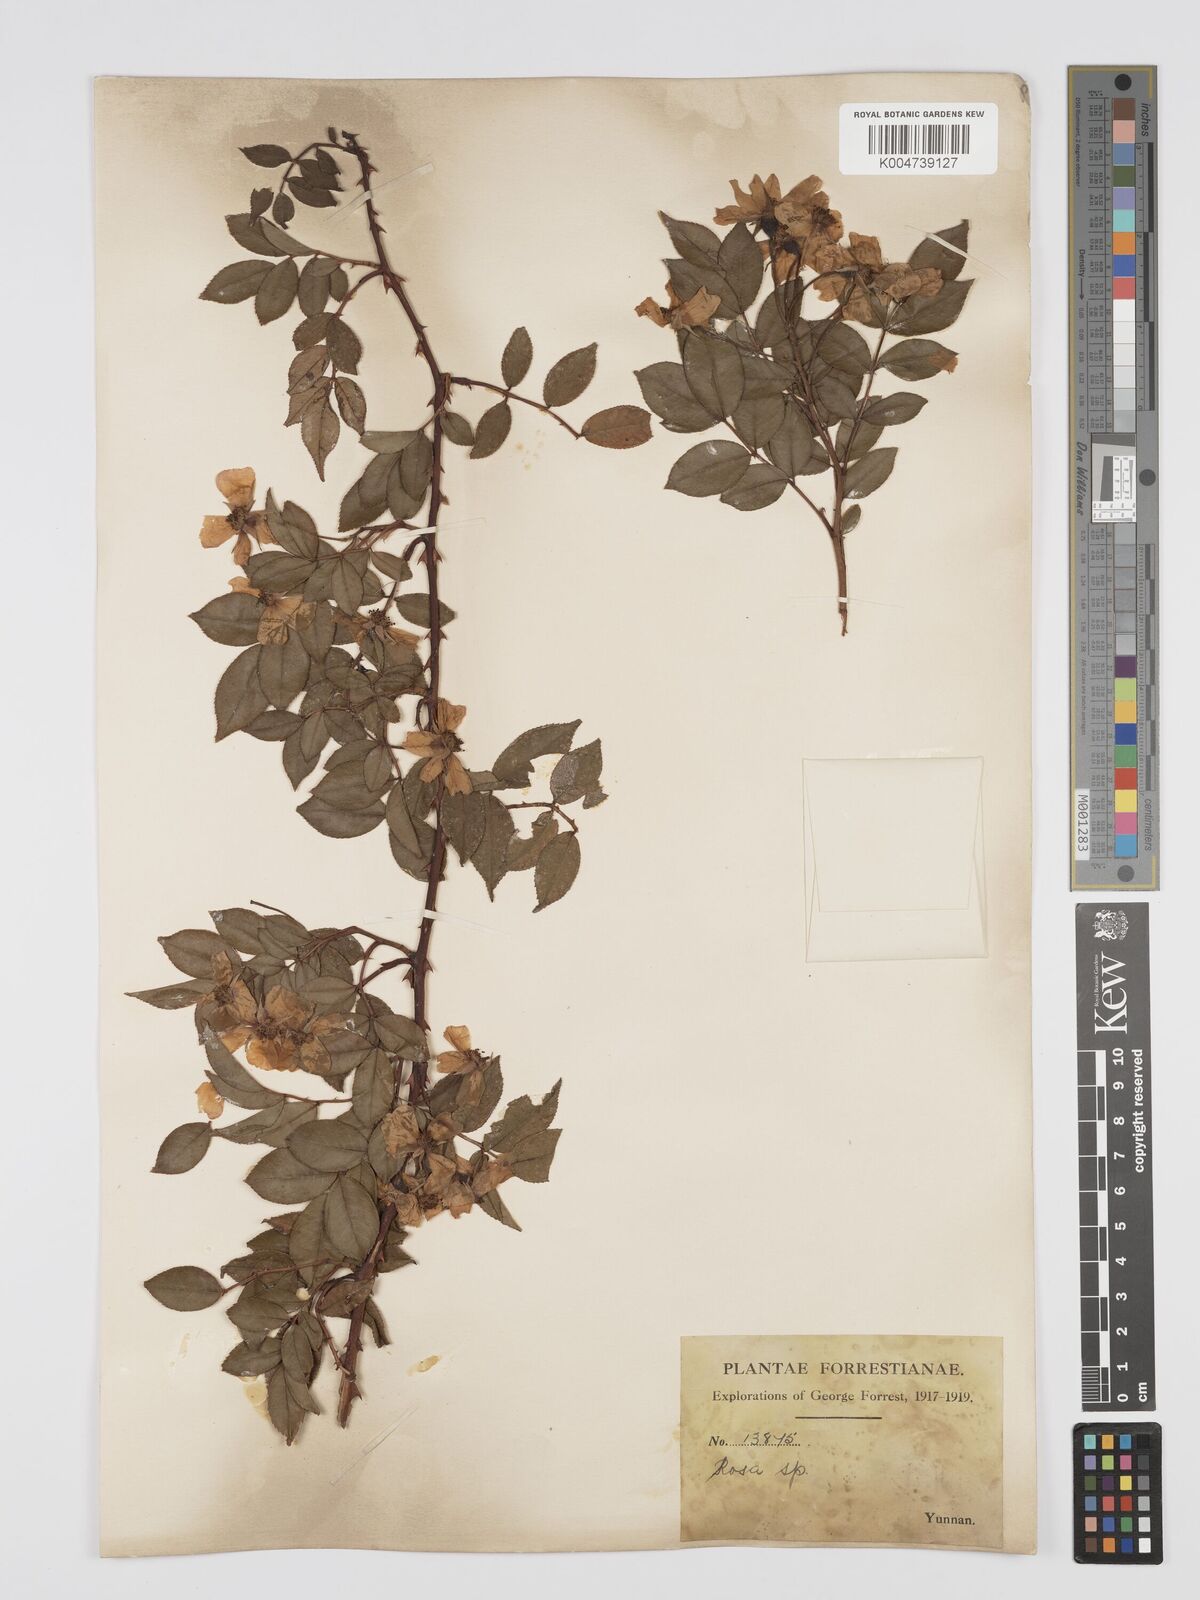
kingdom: Plantae
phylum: Tracheophyta
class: Magnoliopsida
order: Rosales
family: Rosaceae
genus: Rosa
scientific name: Rosa longicuspis
